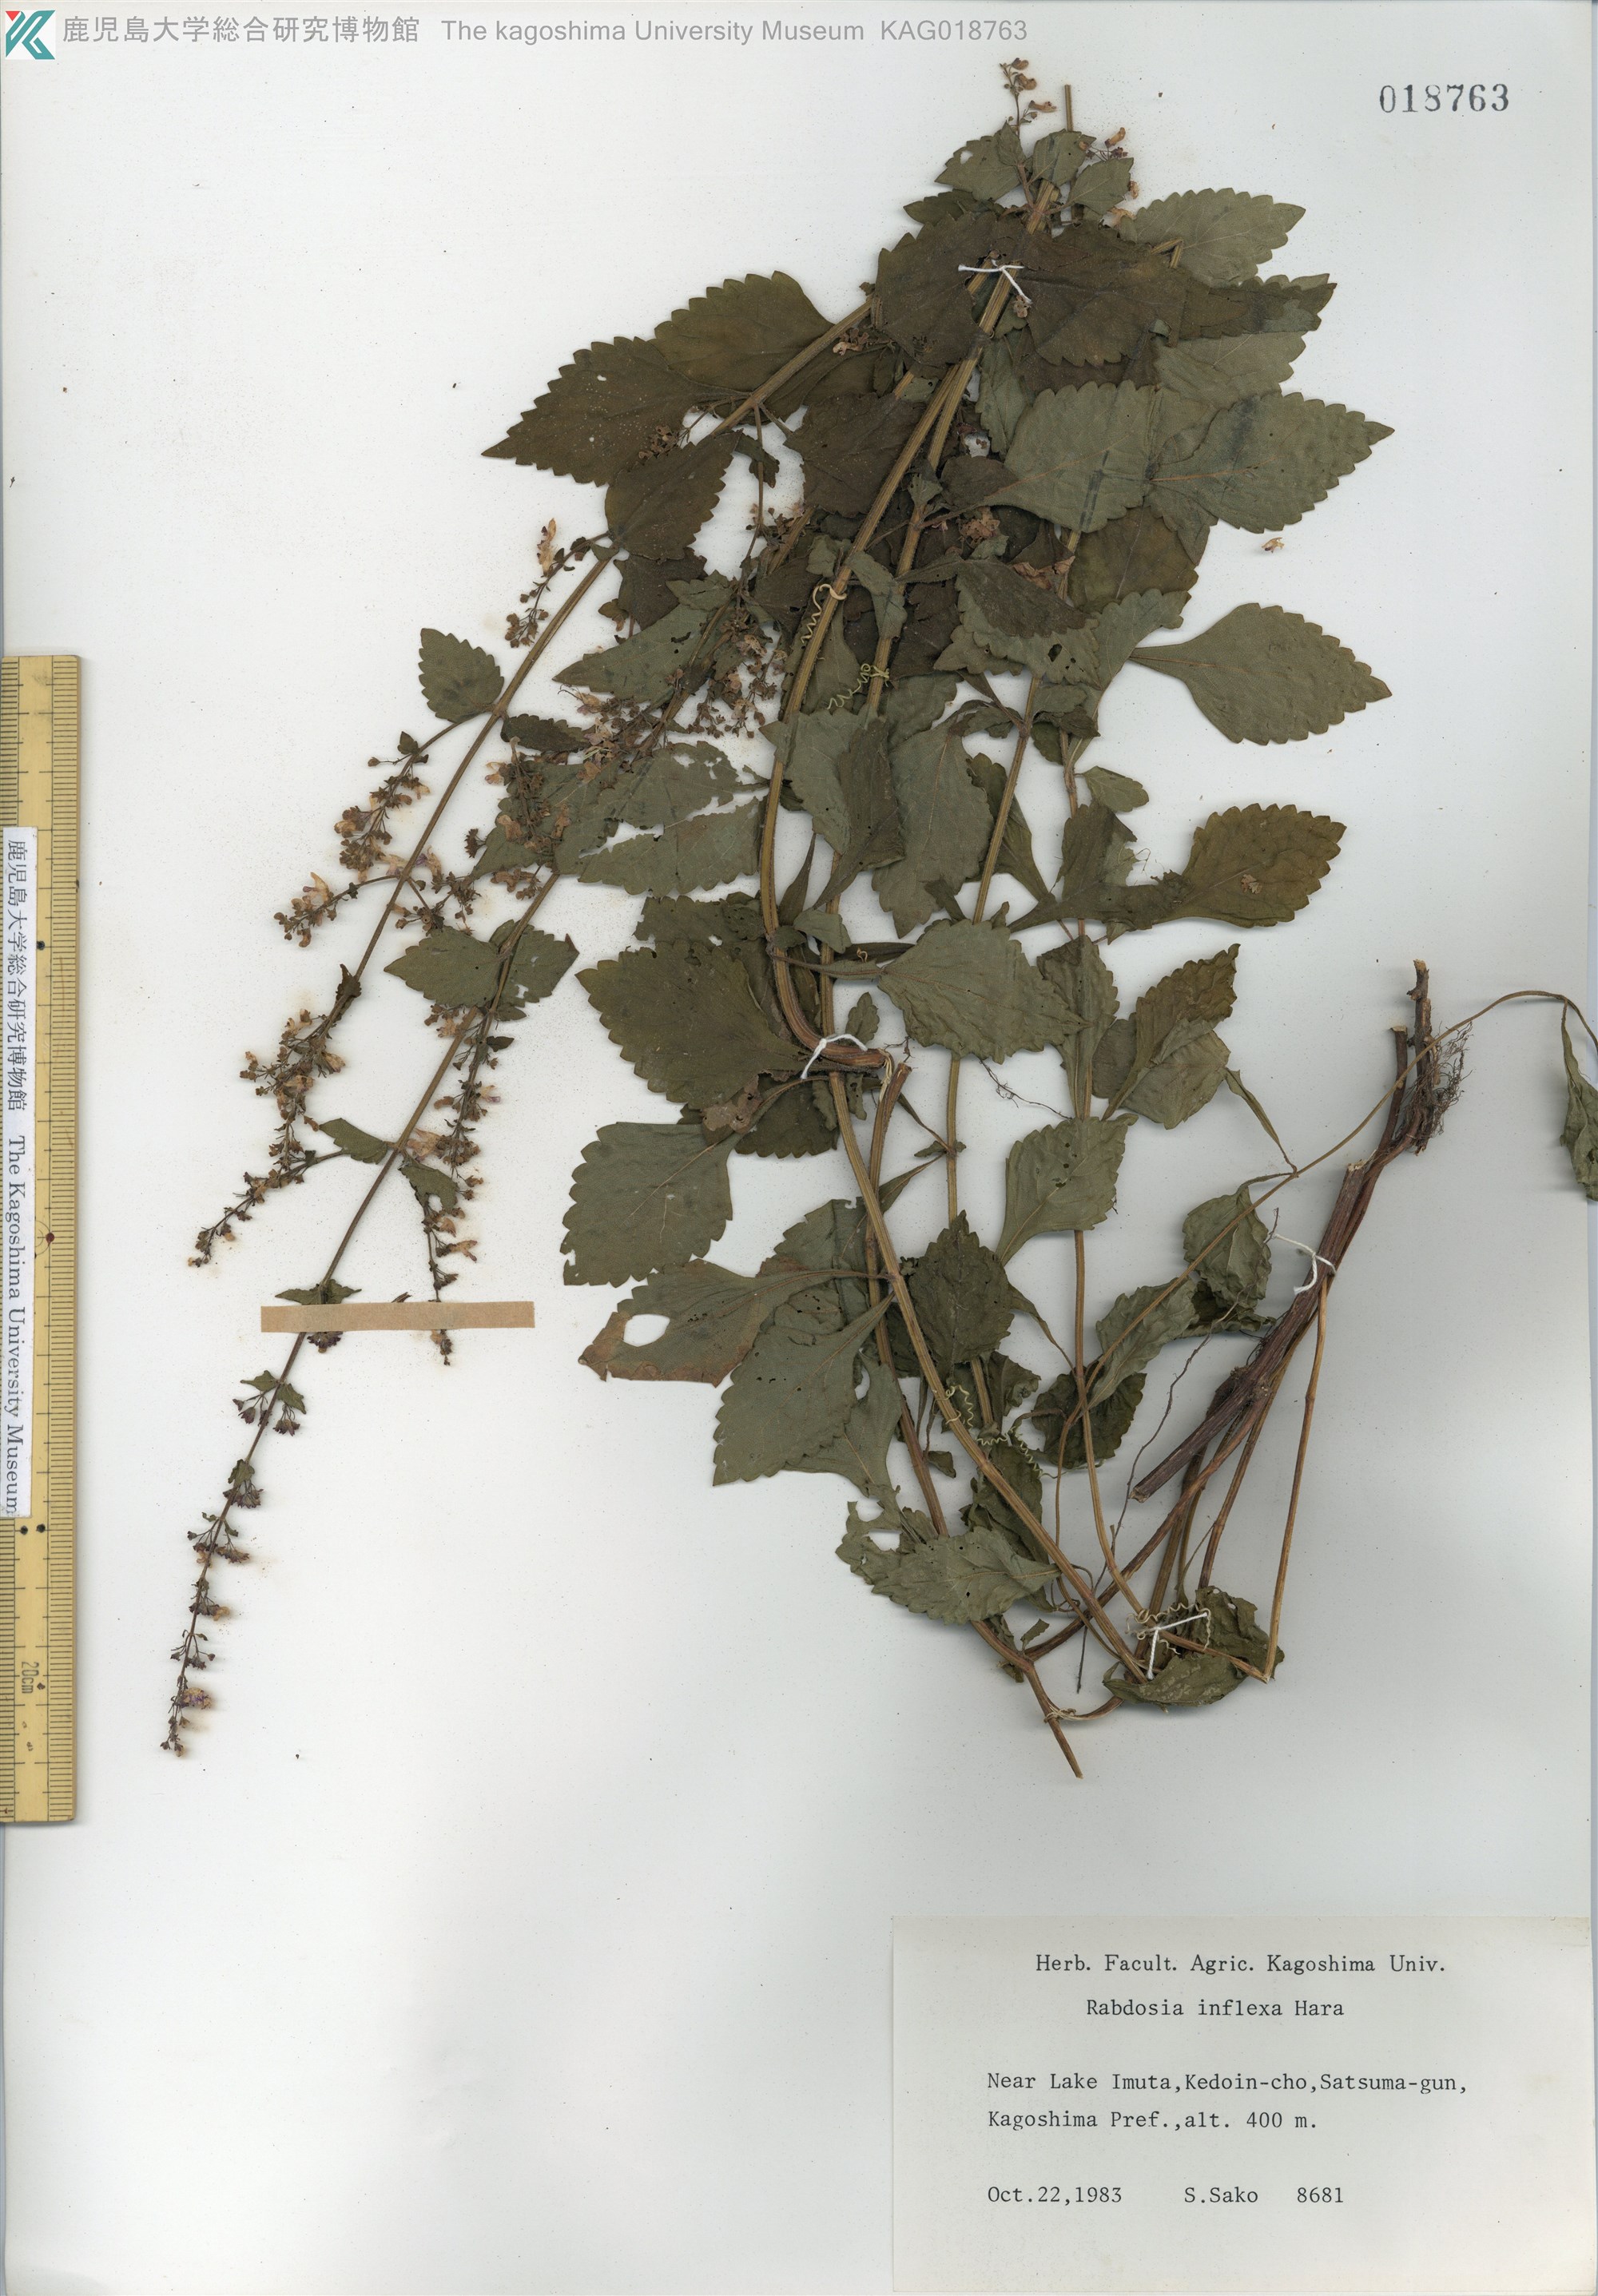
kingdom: Plantae
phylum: Tracheophyta
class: Magnoliopsida
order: Lamiales
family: Lamiaceae
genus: Isodon
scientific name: Isodon inflexus
